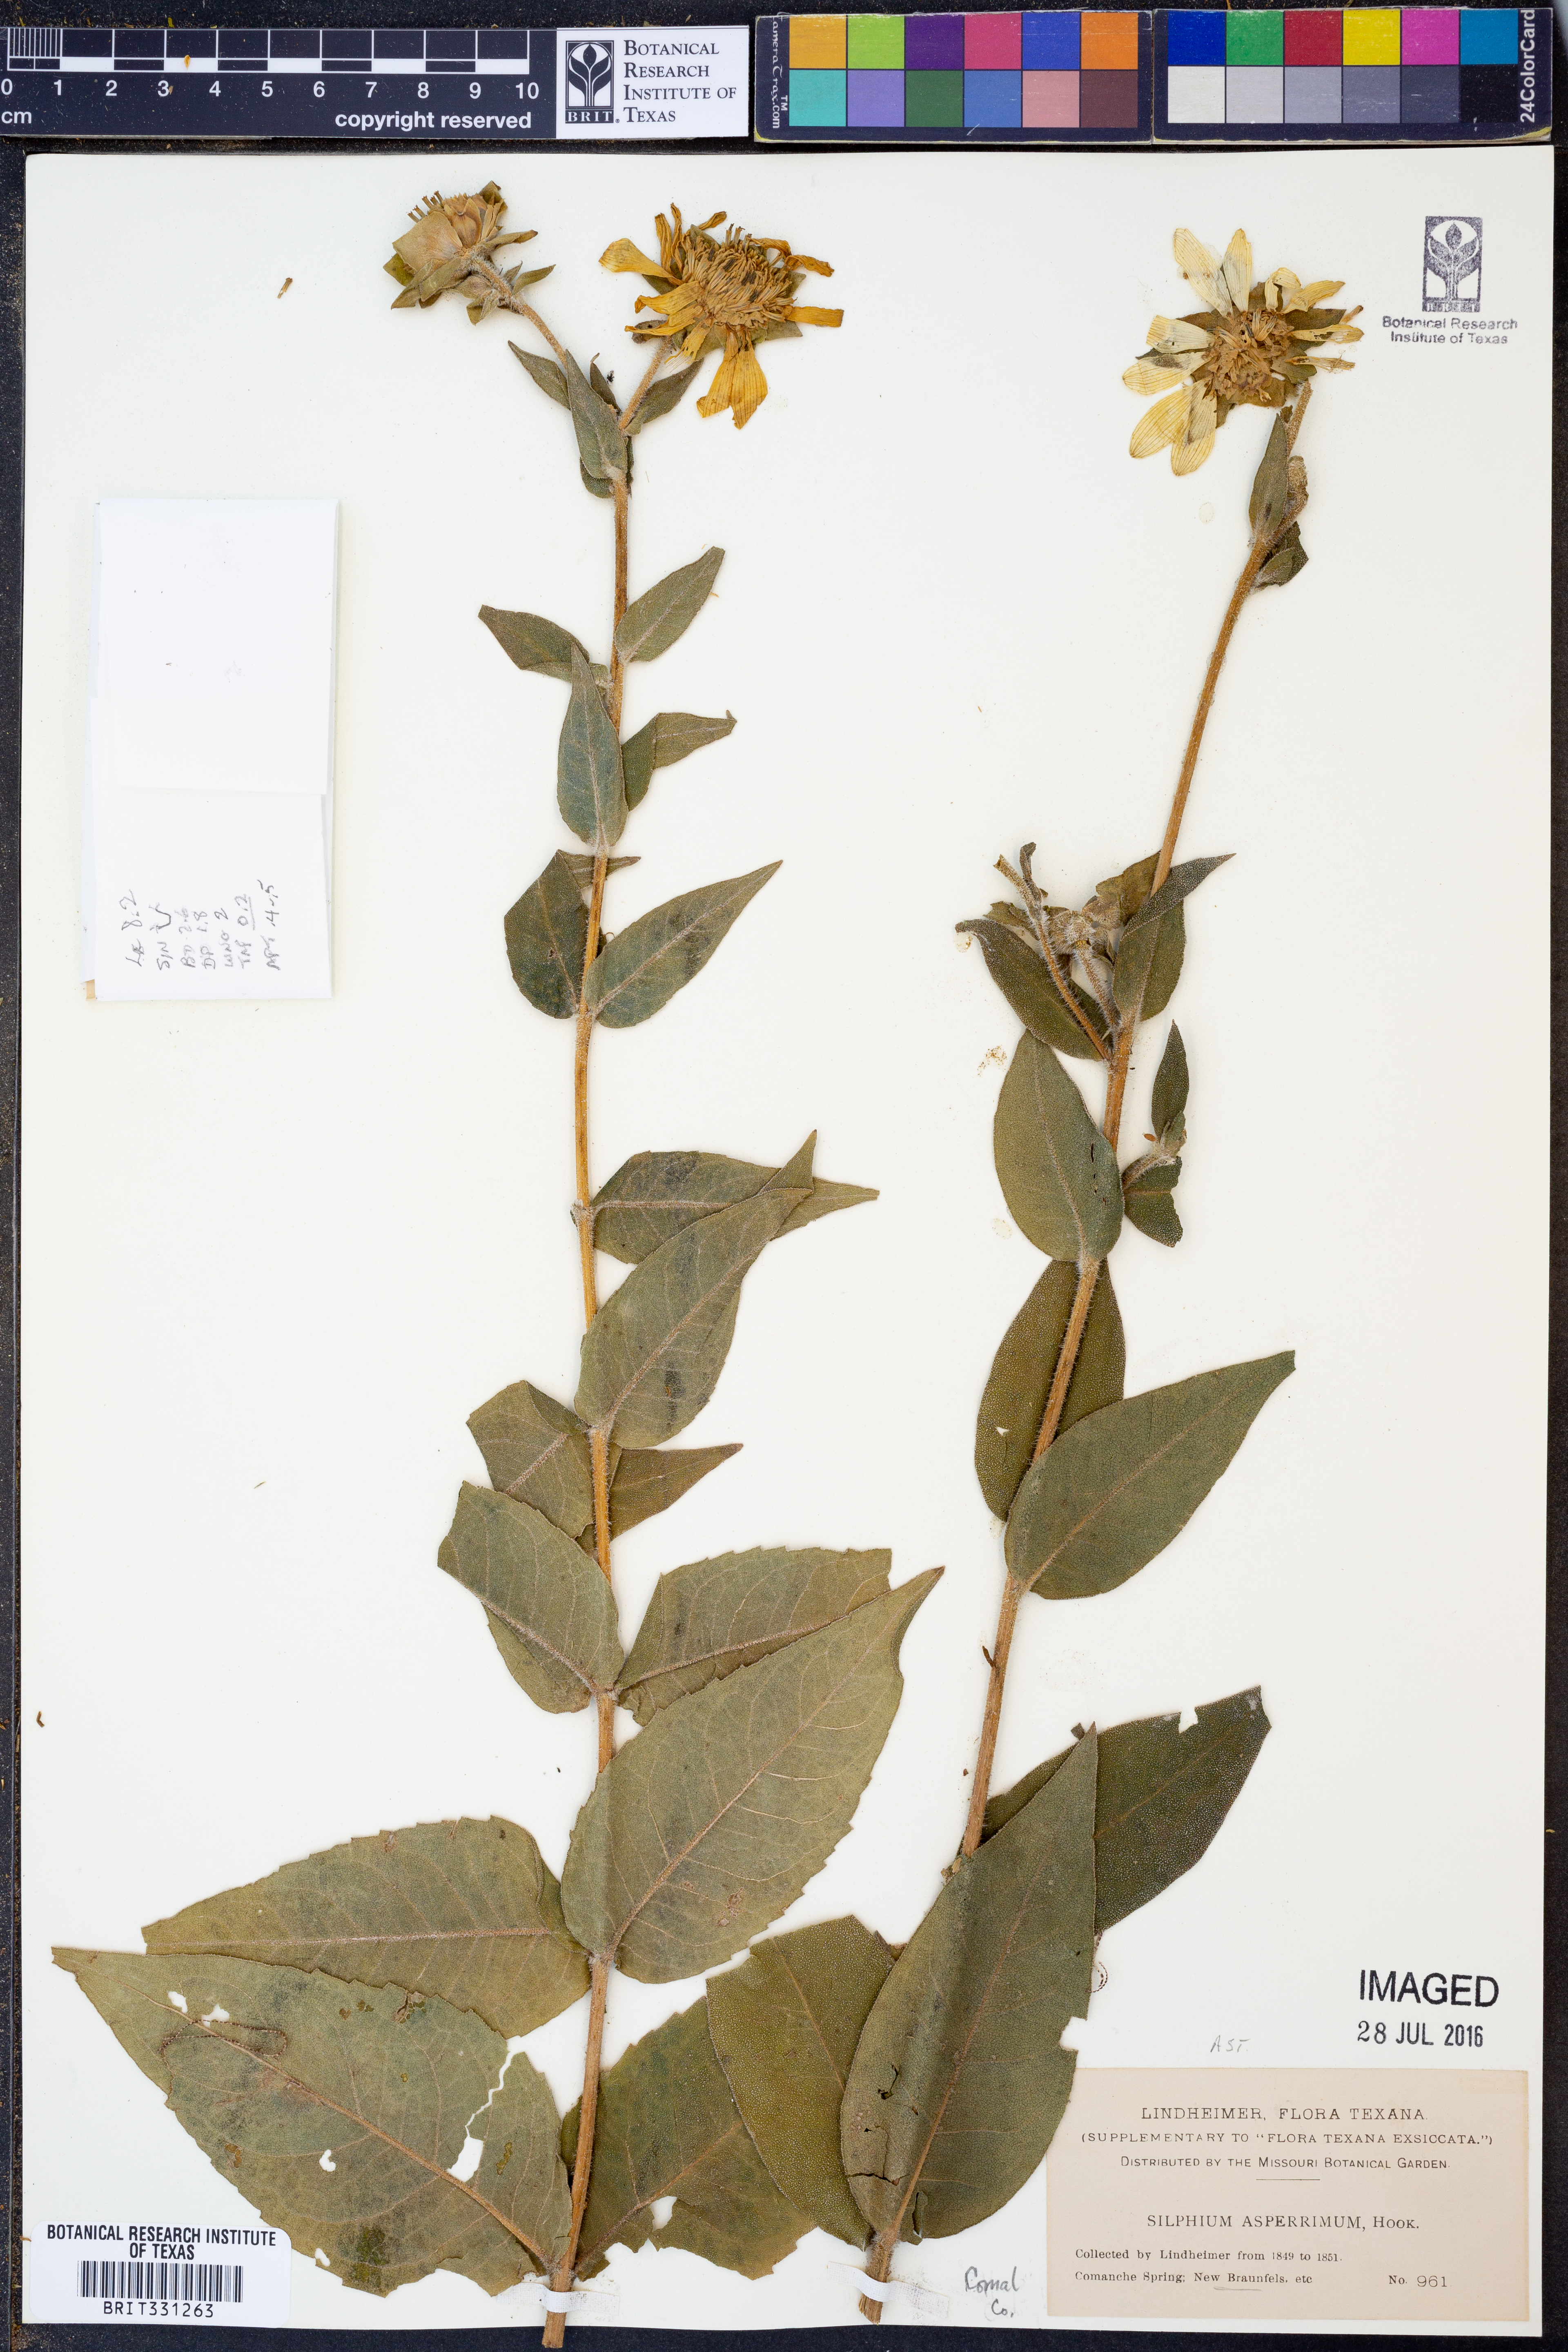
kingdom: Plantae
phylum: Tracheophyta
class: Magnoliopsida
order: Asterales
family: Asteraceae
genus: Silphium
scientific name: Silphium asperrimum
